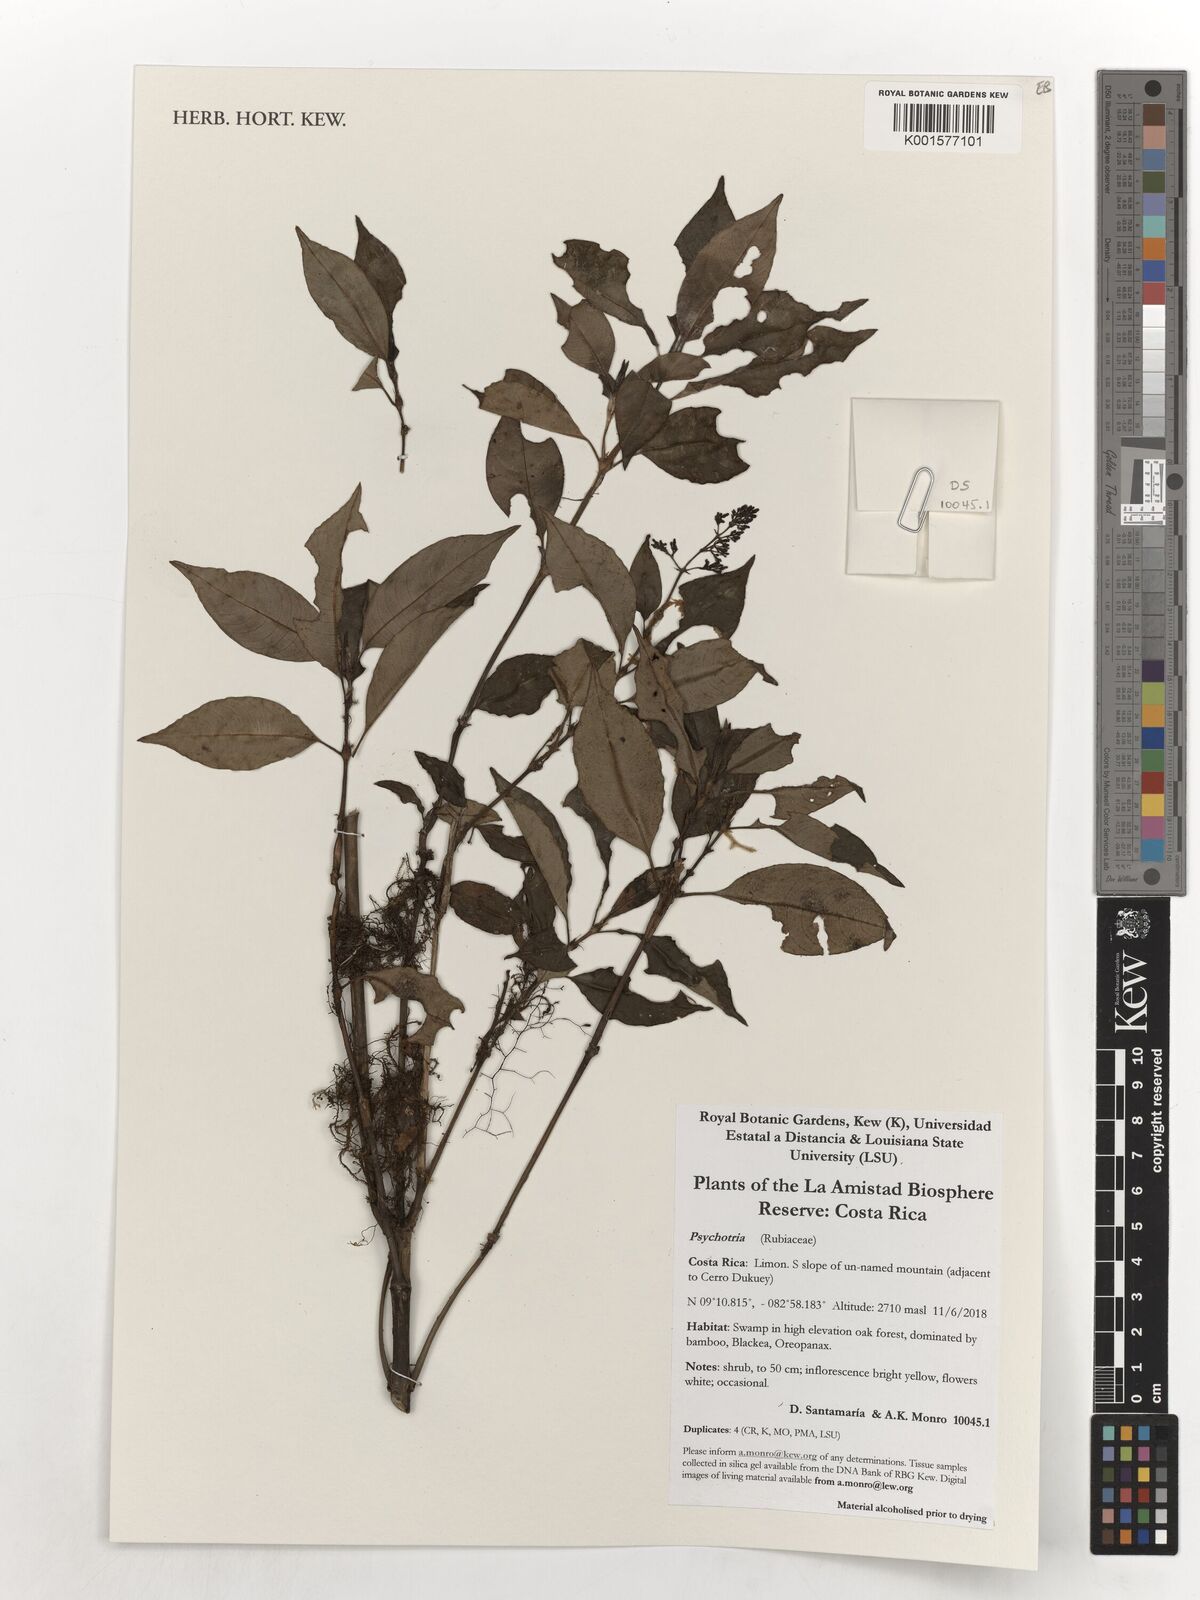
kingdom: Plantae
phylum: Tracheophyta
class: Magnoliopsida
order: Gentianales
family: Rubiaceae
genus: Psychotria
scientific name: Psychotria
